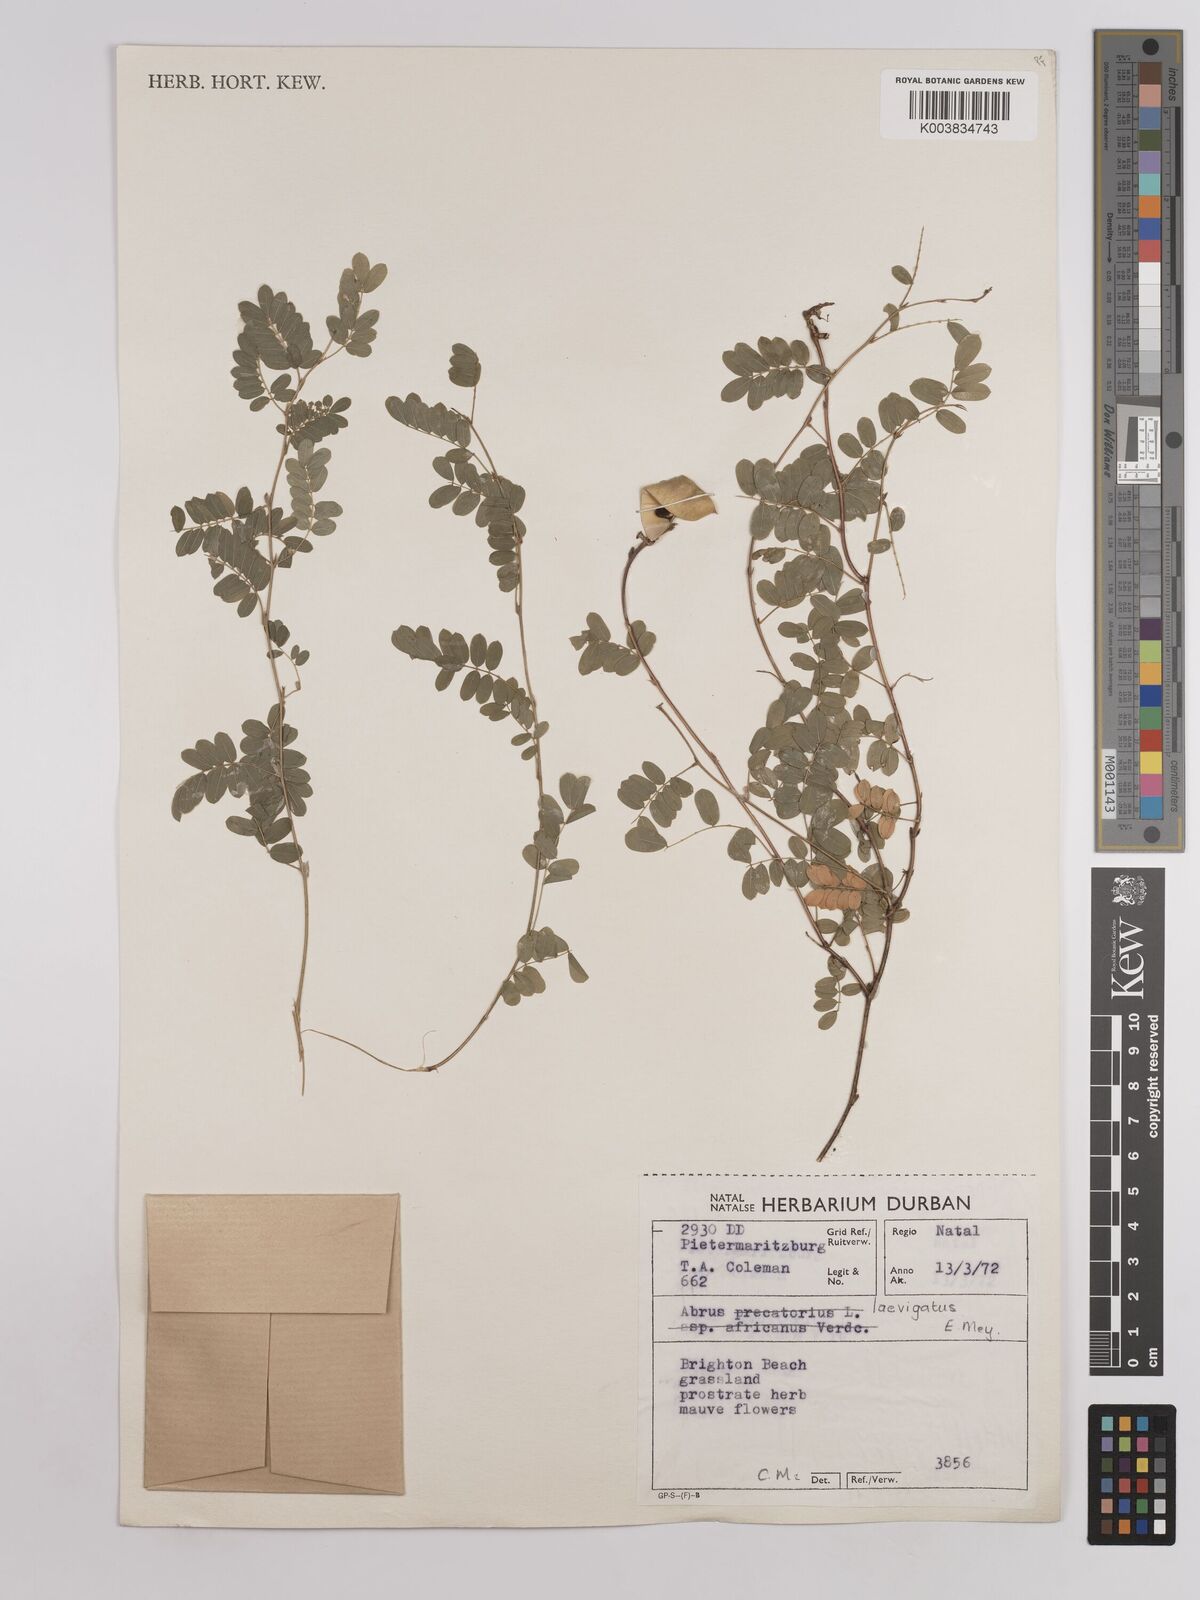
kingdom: Plantae
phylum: Tracheophyta
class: Magnoliopsida
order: Fabales
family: Fabaceae
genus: Abrus
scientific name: Abrus laevigatus
